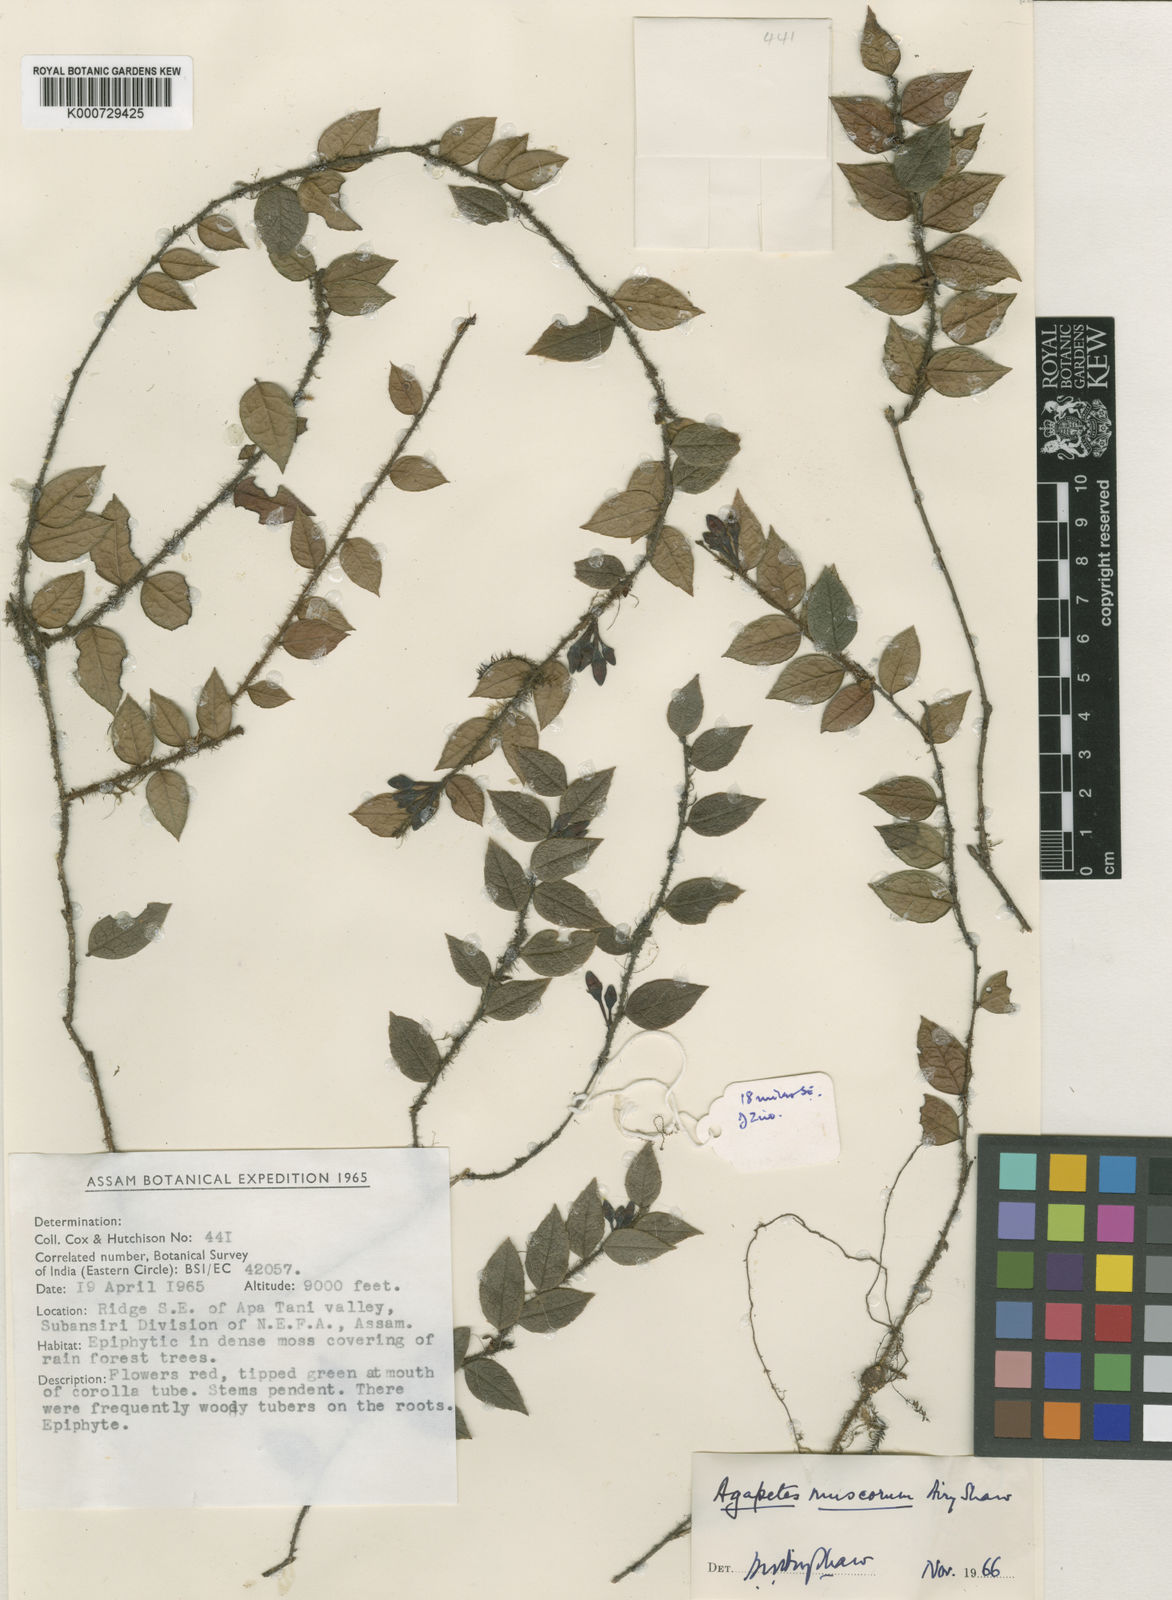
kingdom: Plantae
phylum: Tracheophyta
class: Magnoliopsida
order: Ericales
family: Ericaceae
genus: Agapetes
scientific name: Agapetes praestigiosa
